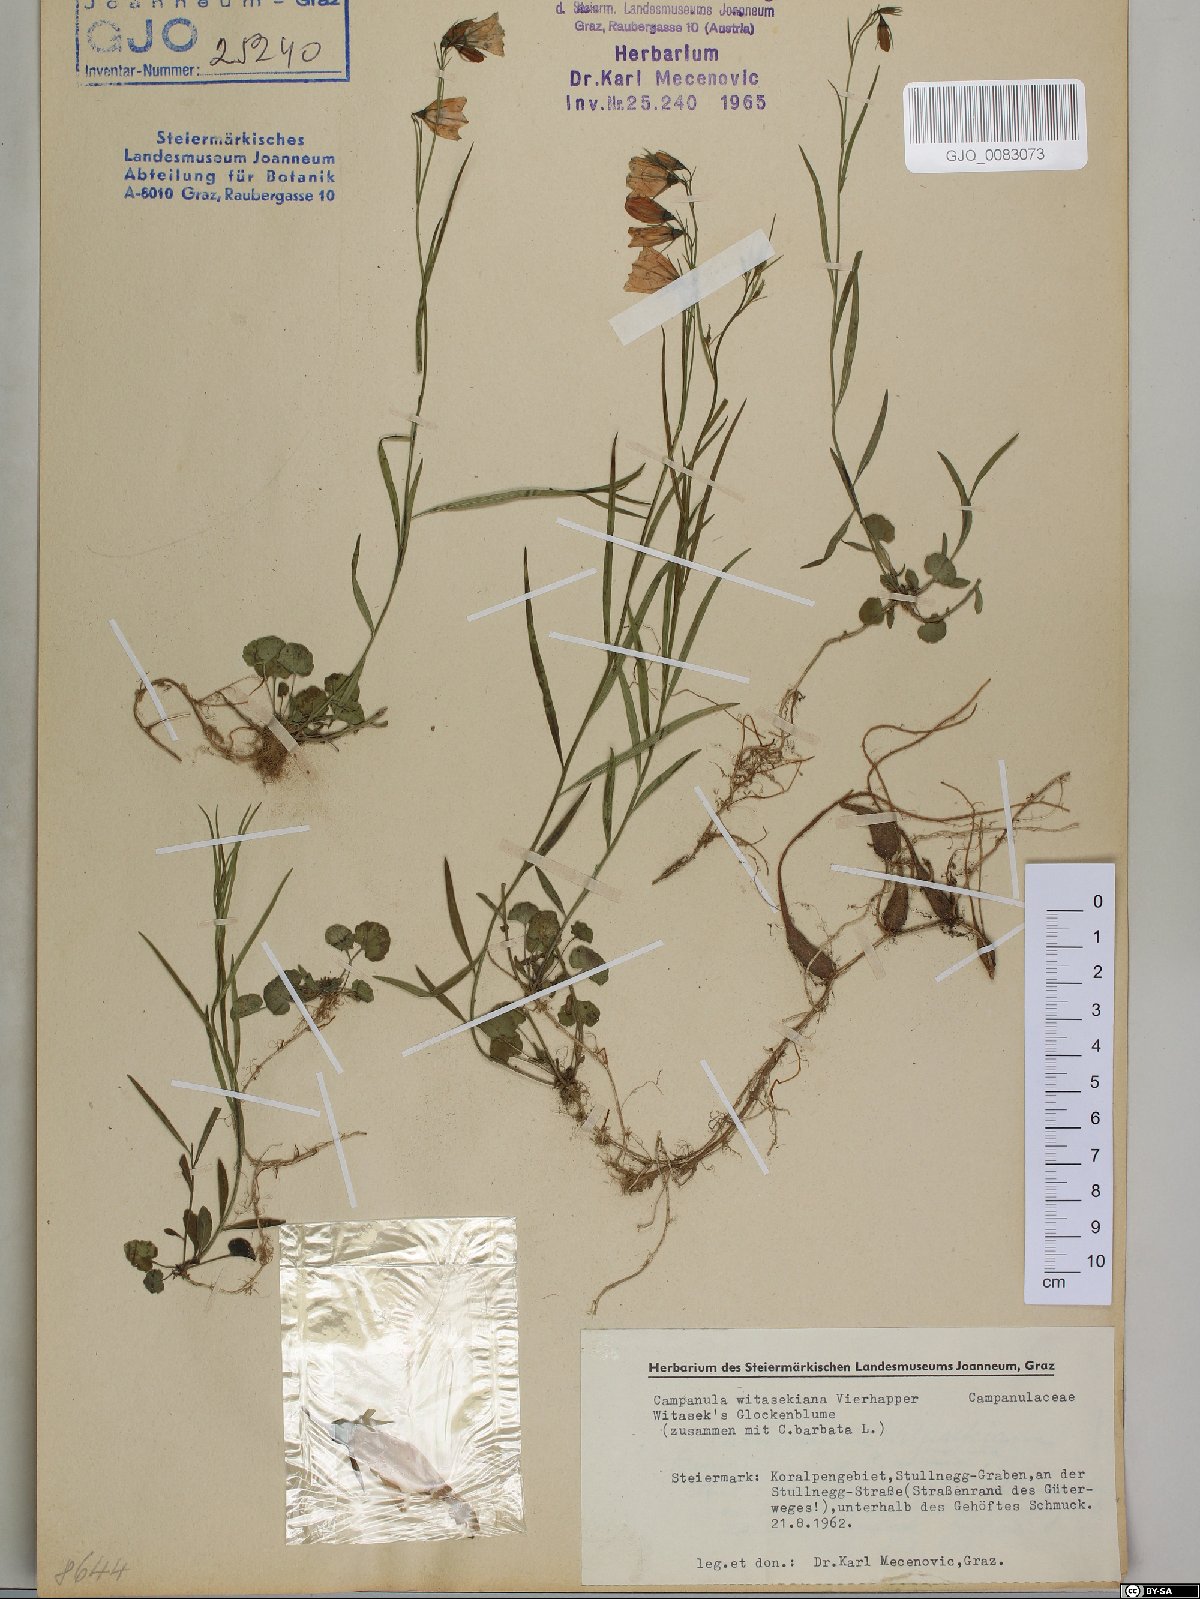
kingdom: Plantae
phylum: Tracheophyta
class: Magnoliopsida
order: Asterales
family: Campanulaceae
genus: Campanula
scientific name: Campanula witasekiana
